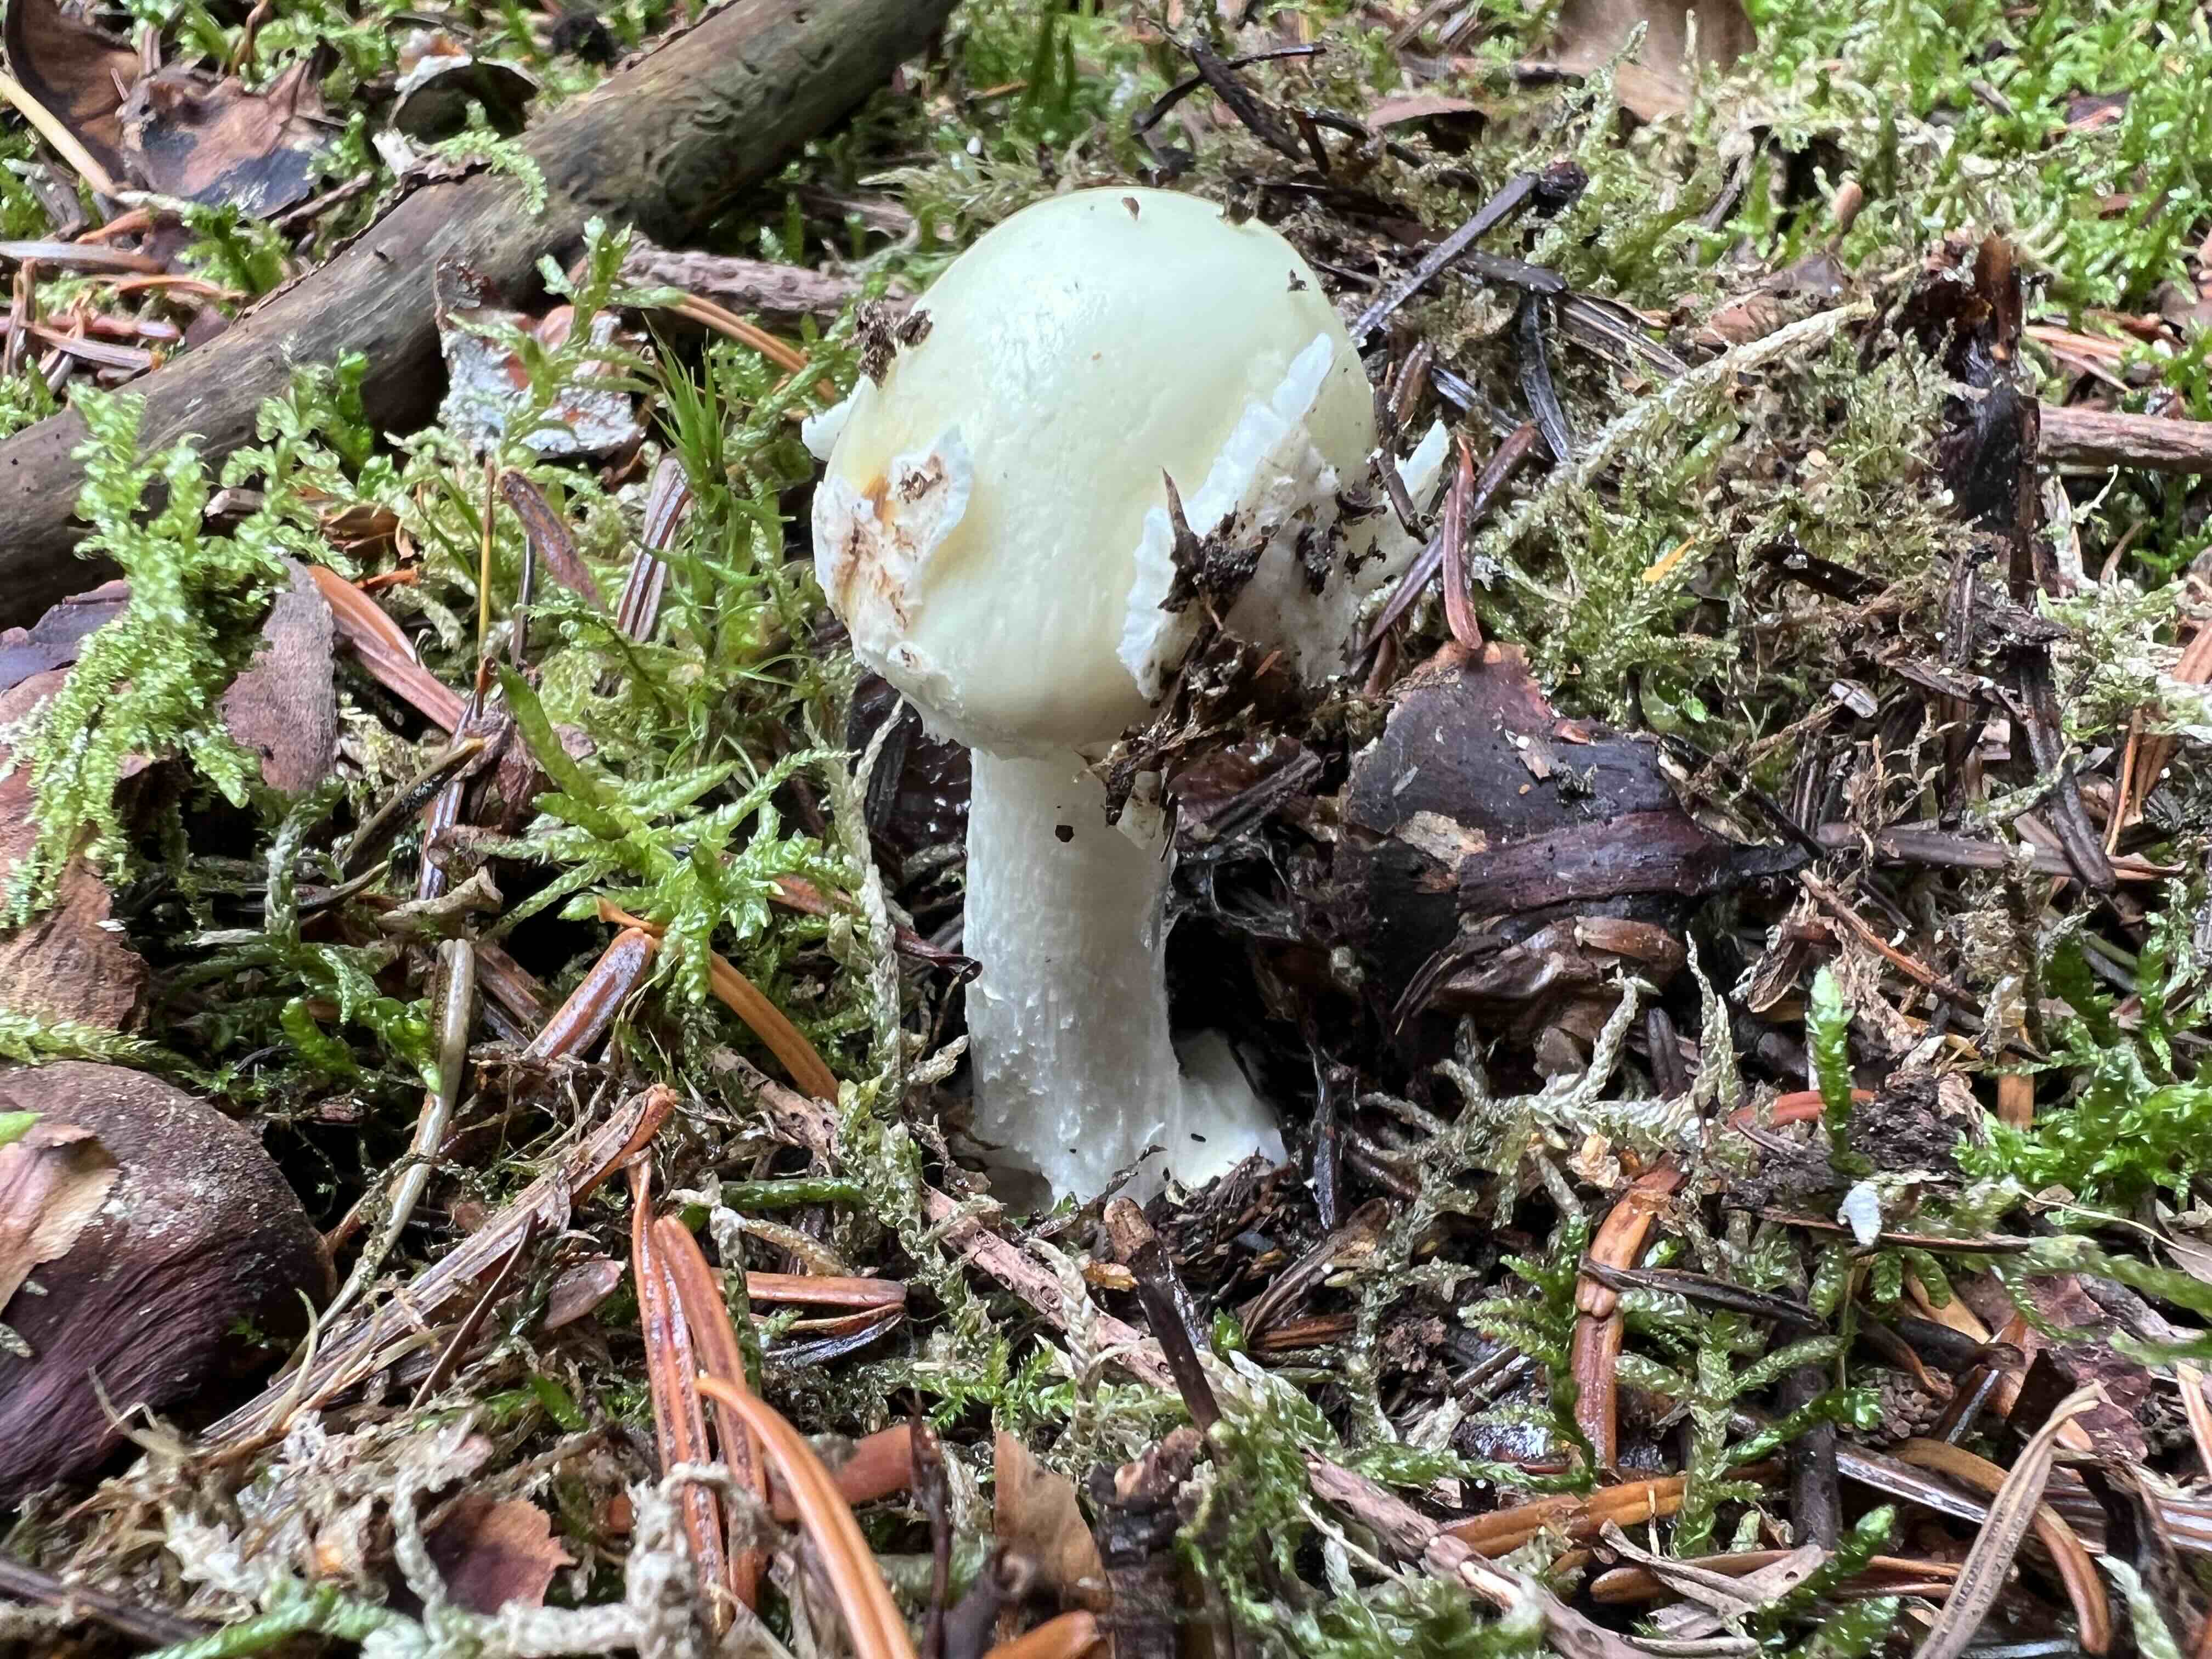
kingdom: Fungi
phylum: Basidiomycota
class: Agaricomycetes
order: Agaricales
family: Amanitaceae
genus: Amanita
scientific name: Amanita citrina
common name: kugleknoldet fluesvamp
